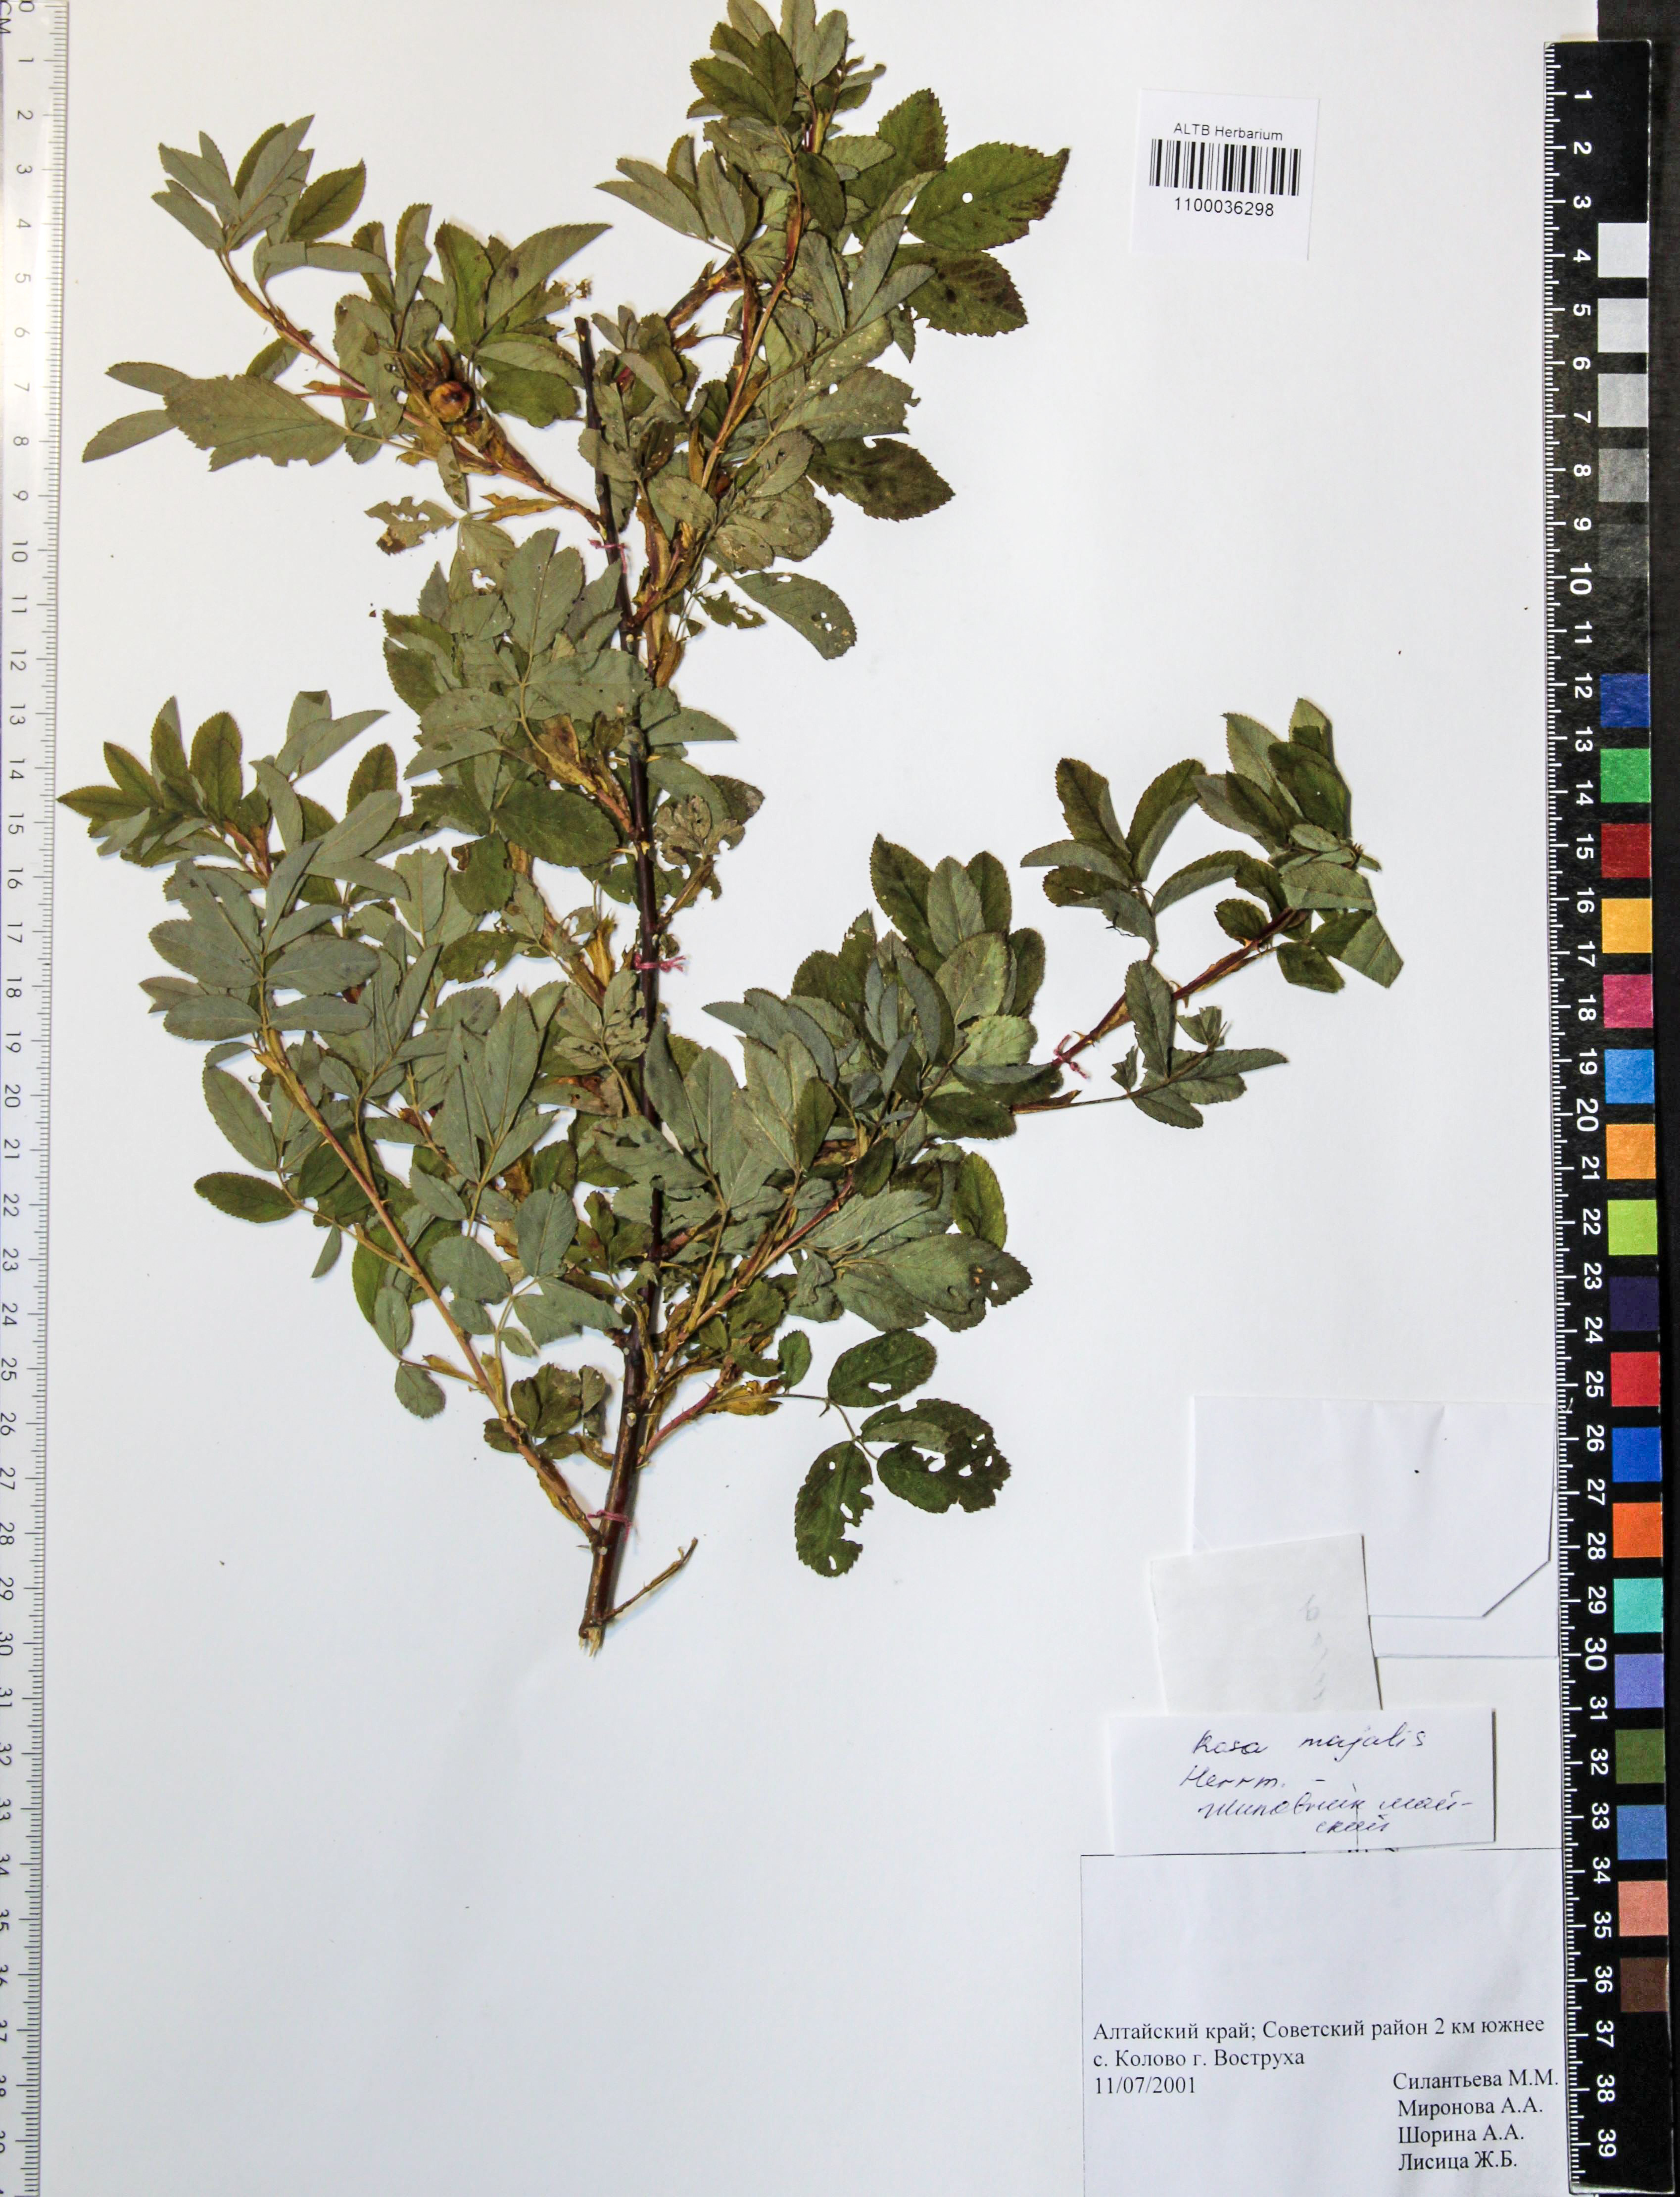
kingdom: Plantae
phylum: Tracheophyta
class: Magnoliopsida
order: Rosales
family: Rosaceae
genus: Rosa
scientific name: Rosa majalis
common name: Cinnamon rose
